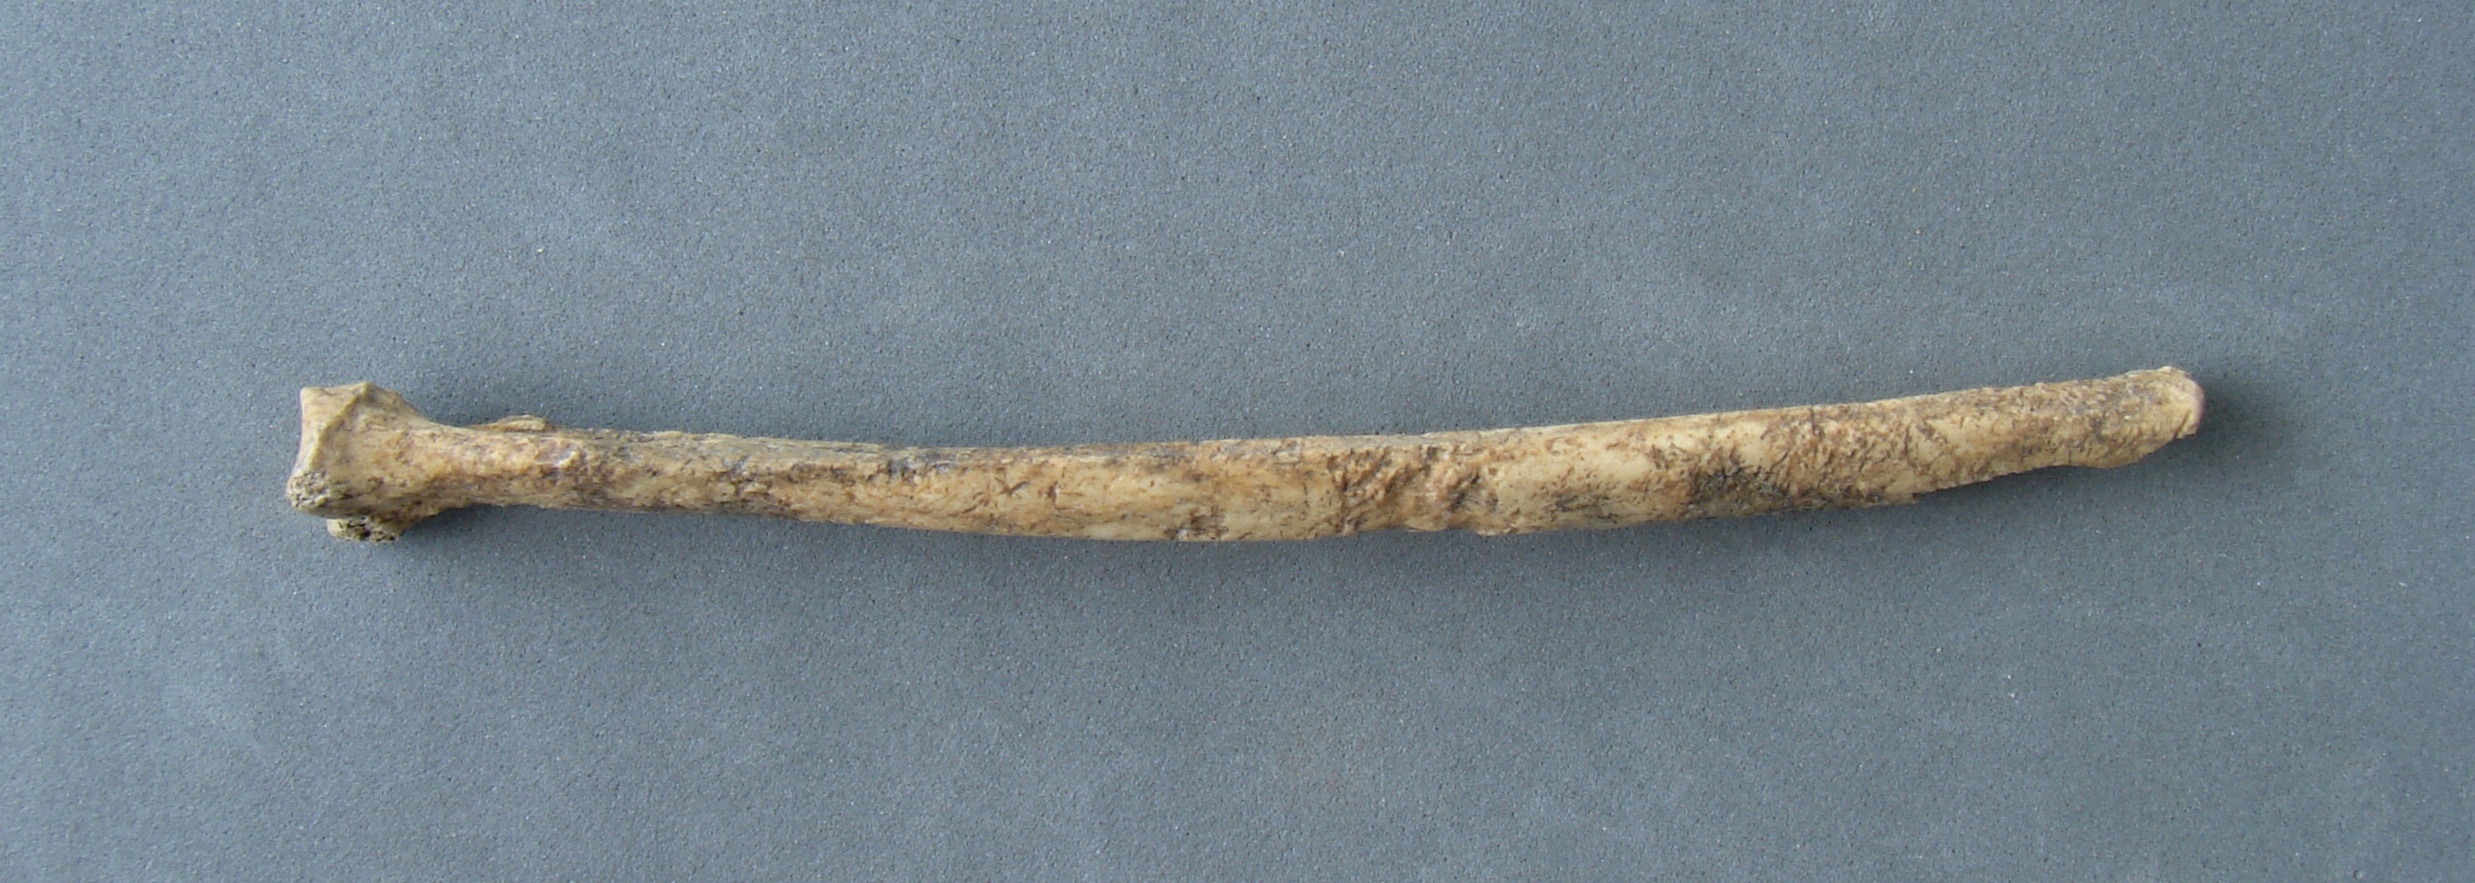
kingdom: Animalia
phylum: Chordata
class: Mammalia
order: Carnivora
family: Canidae
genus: Vulpes
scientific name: Vulpes vulpes
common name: Red fox
